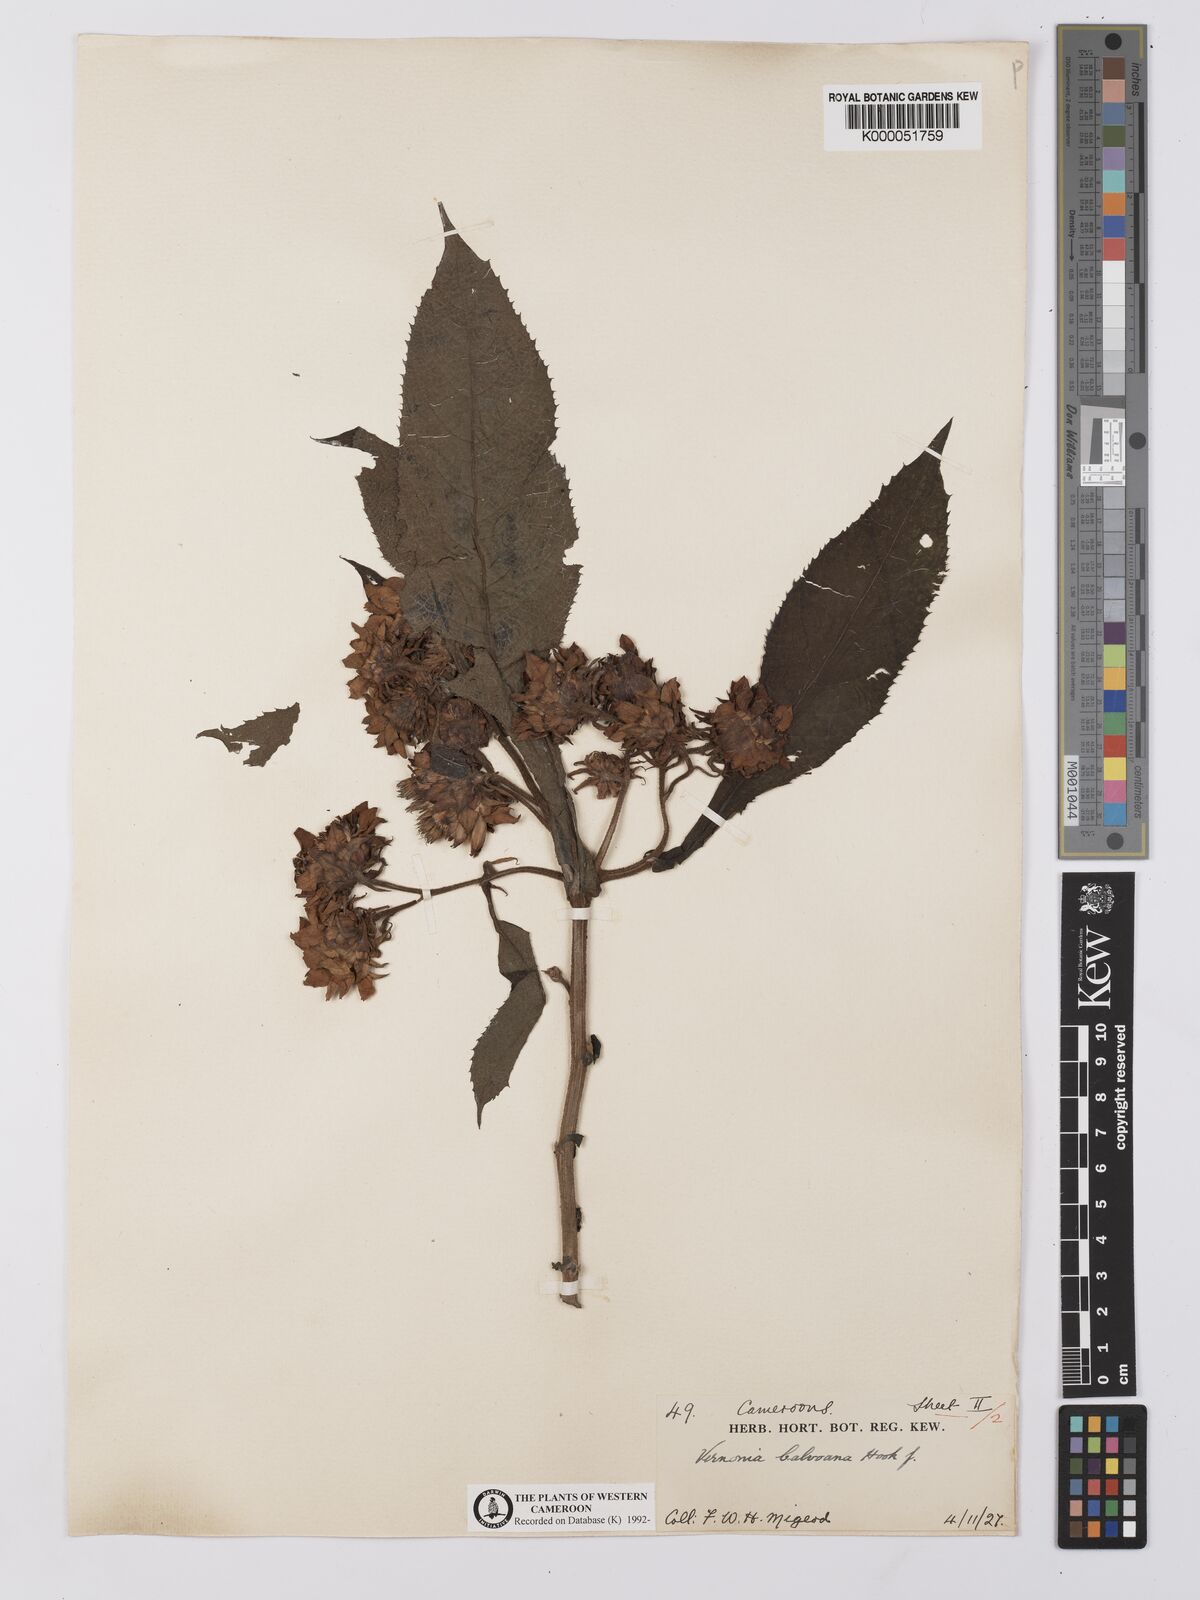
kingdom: Plantae
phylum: Tracheophyta
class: Magnoliopsida
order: Asterales
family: Asteraceae
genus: Baccharoides
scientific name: Baccharoides hymenolepis
